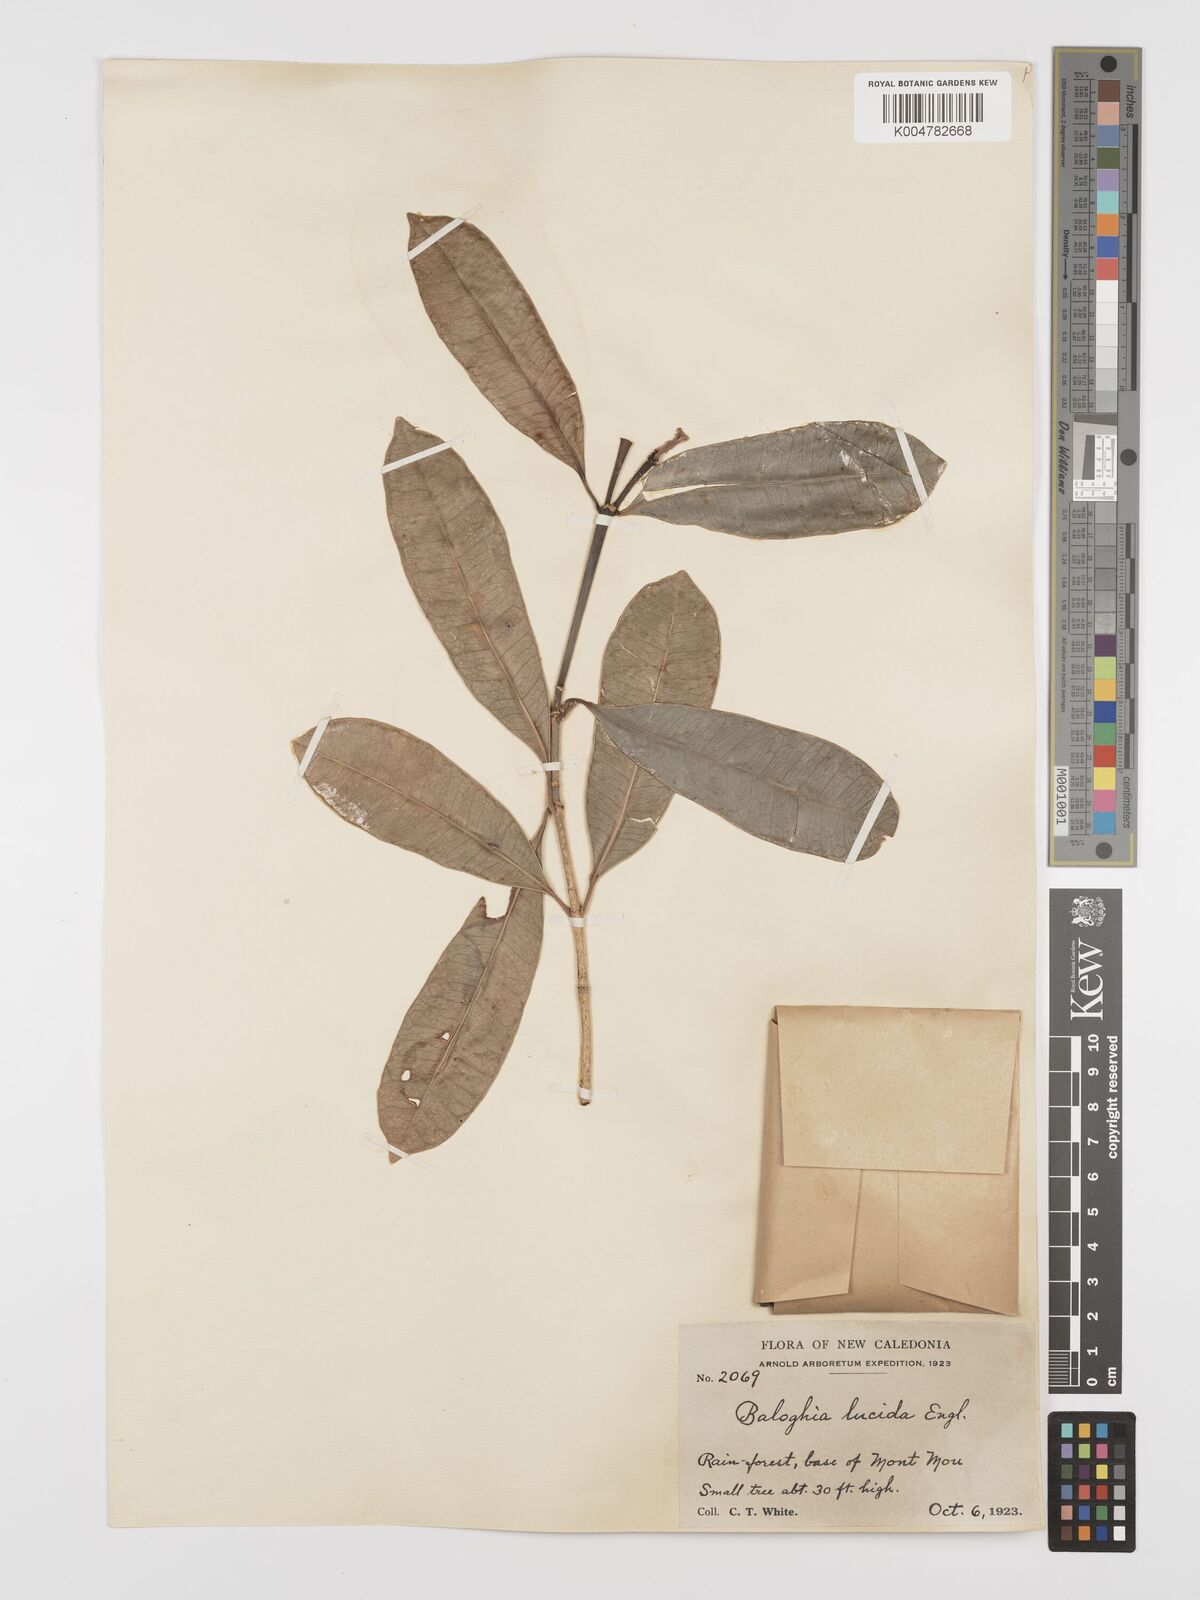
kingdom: Plantae
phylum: Tracheophyta
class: Magnoliopsida
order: Malpighiales
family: Euphorbiaceae
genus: Baloghia
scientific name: Baloghia inophylla
